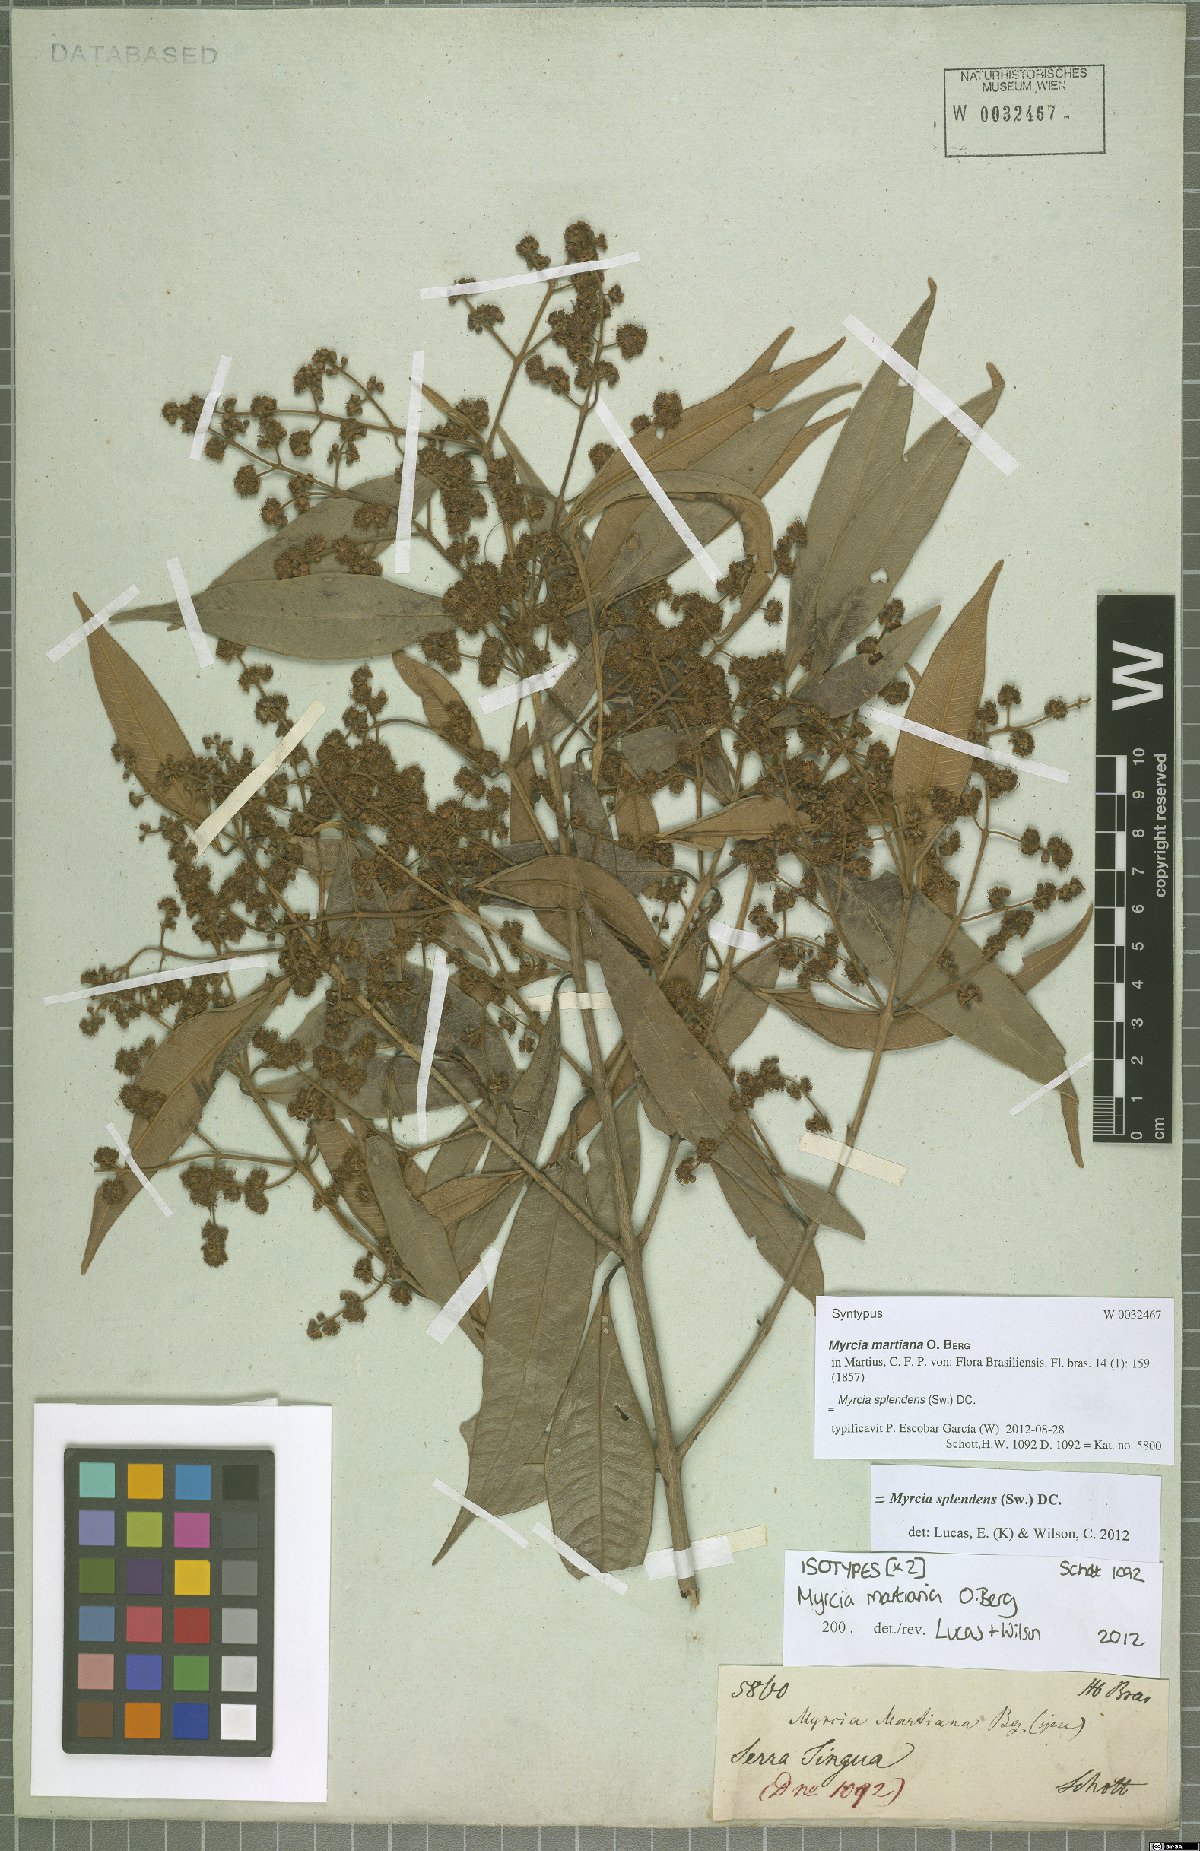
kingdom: Plantae
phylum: Tracheophyta
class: Magnoliopsida
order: Myrtales
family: Myrtaceae
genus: Myrcia
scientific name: Myrcia splendens
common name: Surinam cherry
